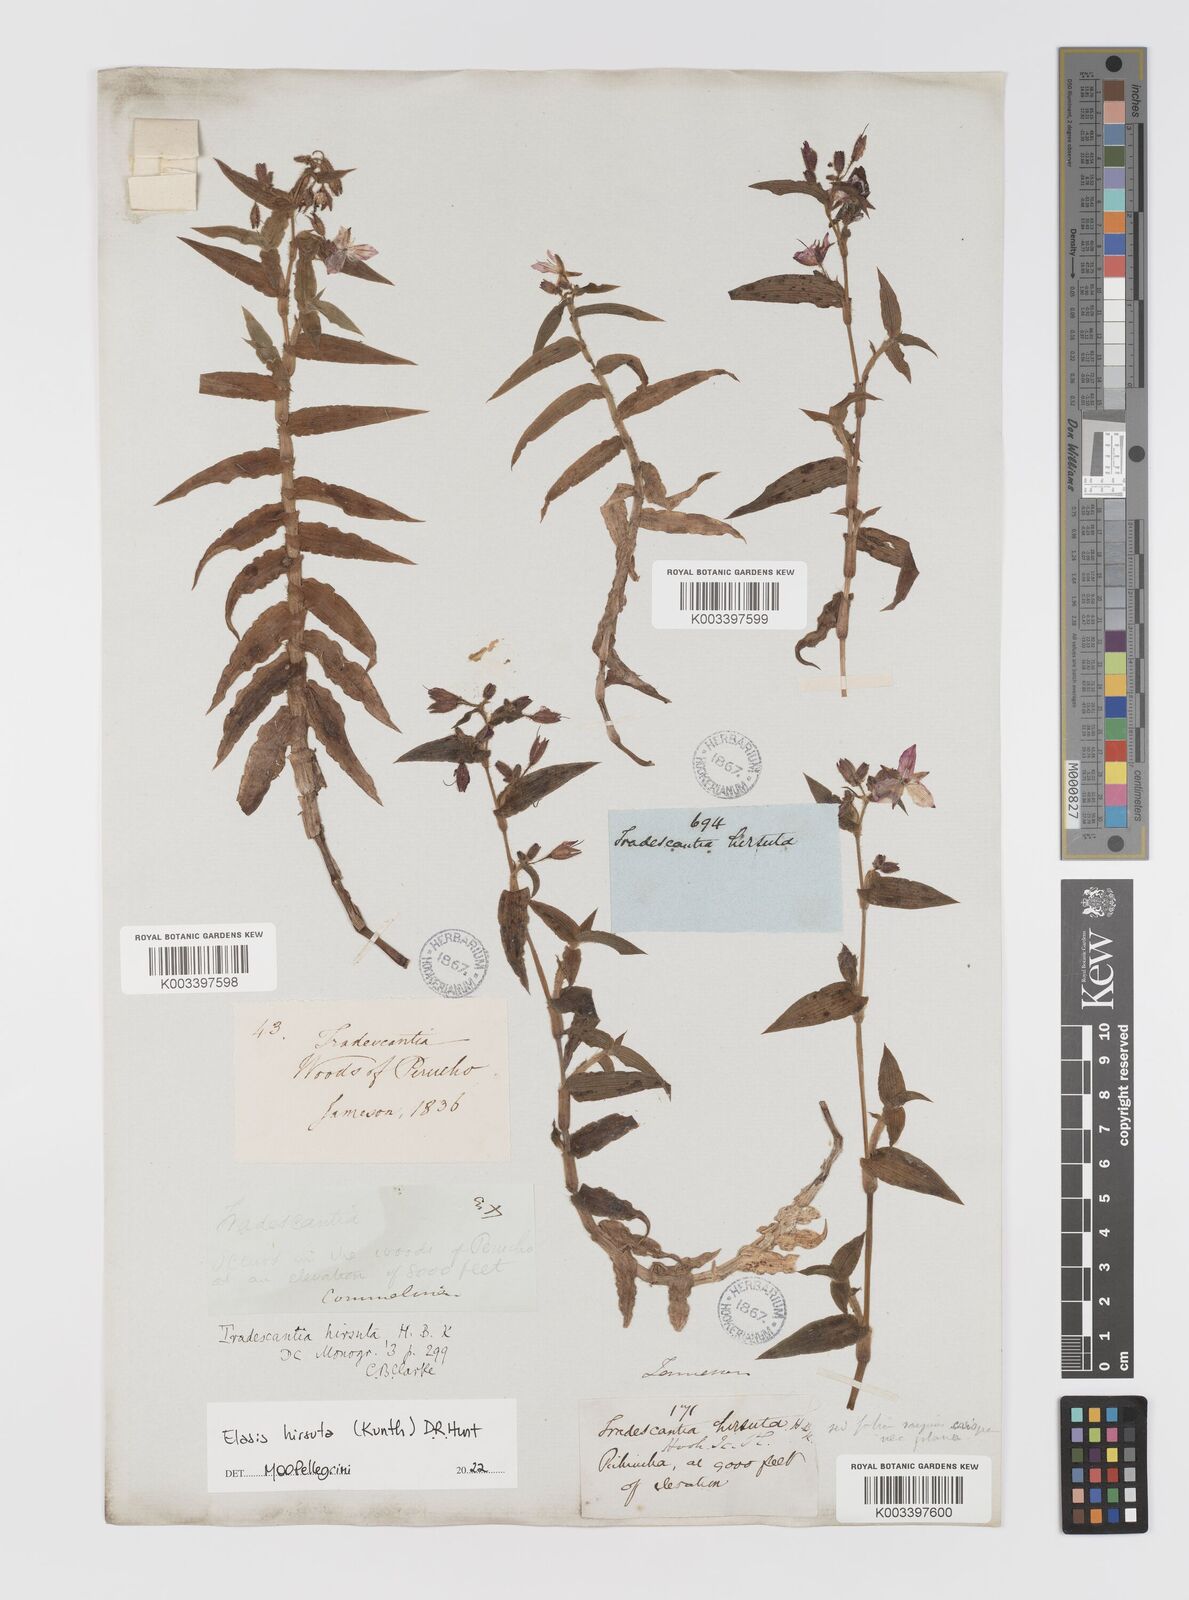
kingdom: Plantae
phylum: Tracheophyta
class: Liliopsida
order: Commelinales
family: Commelinaceae
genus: Elasis
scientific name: Elasis hirsuta
